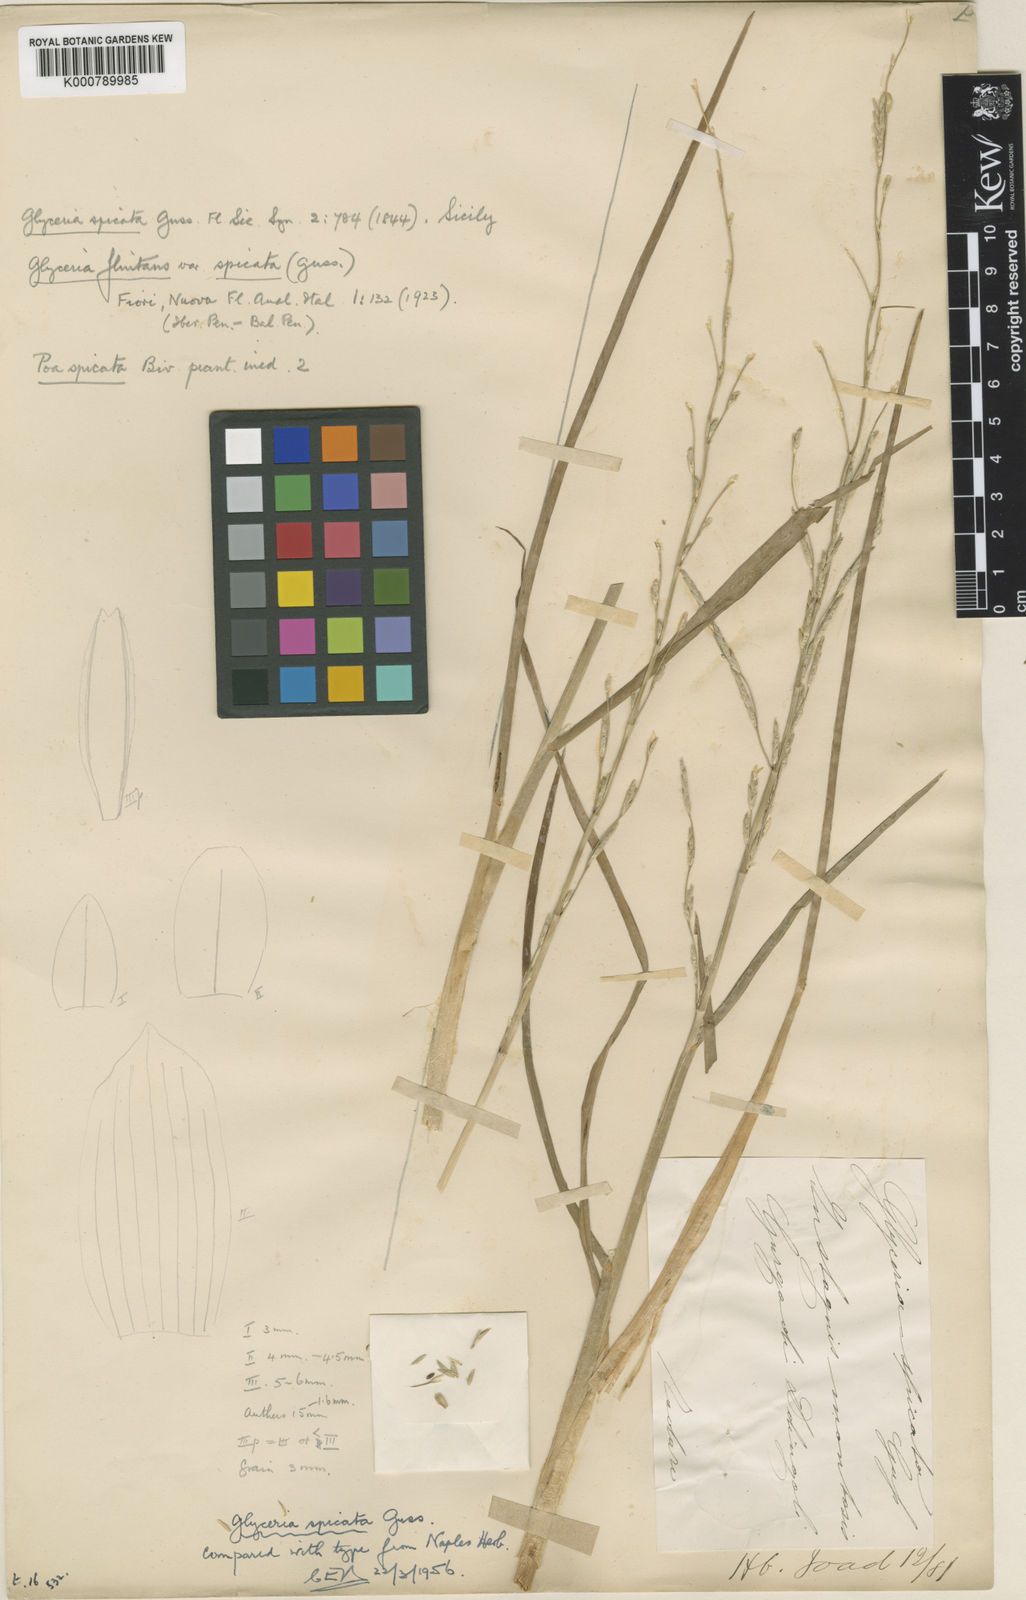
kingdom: Plantae
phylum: Tracheophyta
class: Liliopsida
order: Poales
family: Poaceae
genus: Glyceria
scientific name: Glyceria spicata
